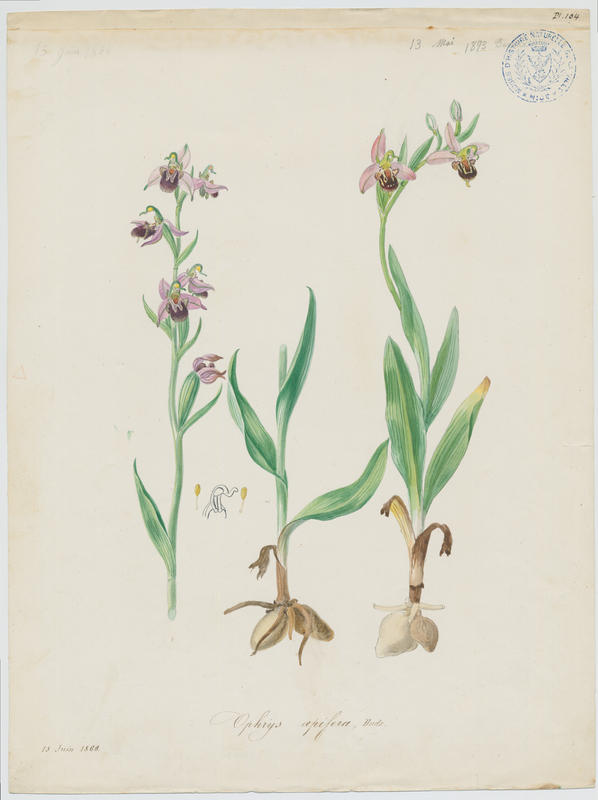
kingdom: Plantae
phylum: Tracheophyta
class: Liliopsida
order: Asparagales
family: Orchidaceae
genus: Ophrys
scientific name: Ophrys apifera
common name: Bee orchid
